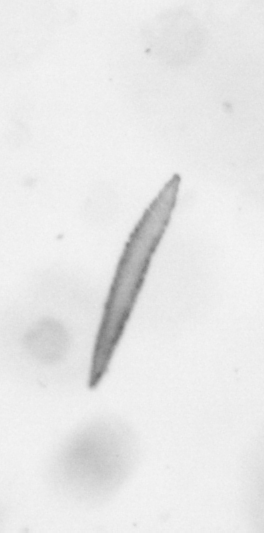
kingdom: Chromista
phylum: Ochrophyta
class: Bacillariophyceae
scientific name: Bacillariophyceae
